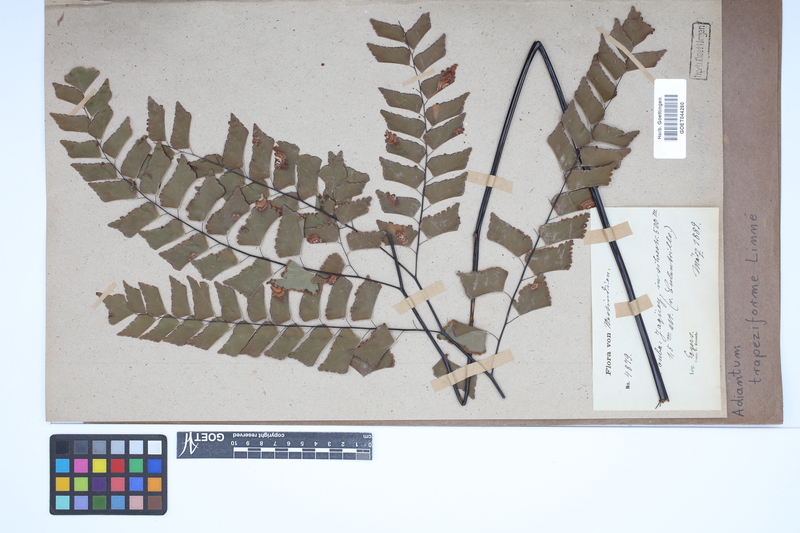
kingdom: Plantae
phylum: Tracheophyta
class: Polypodiopsida
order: Polypodiales
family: Pteridaceae
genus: Adiantum
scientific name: Adiantum trapeziforme
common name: Diamond maidenhair
